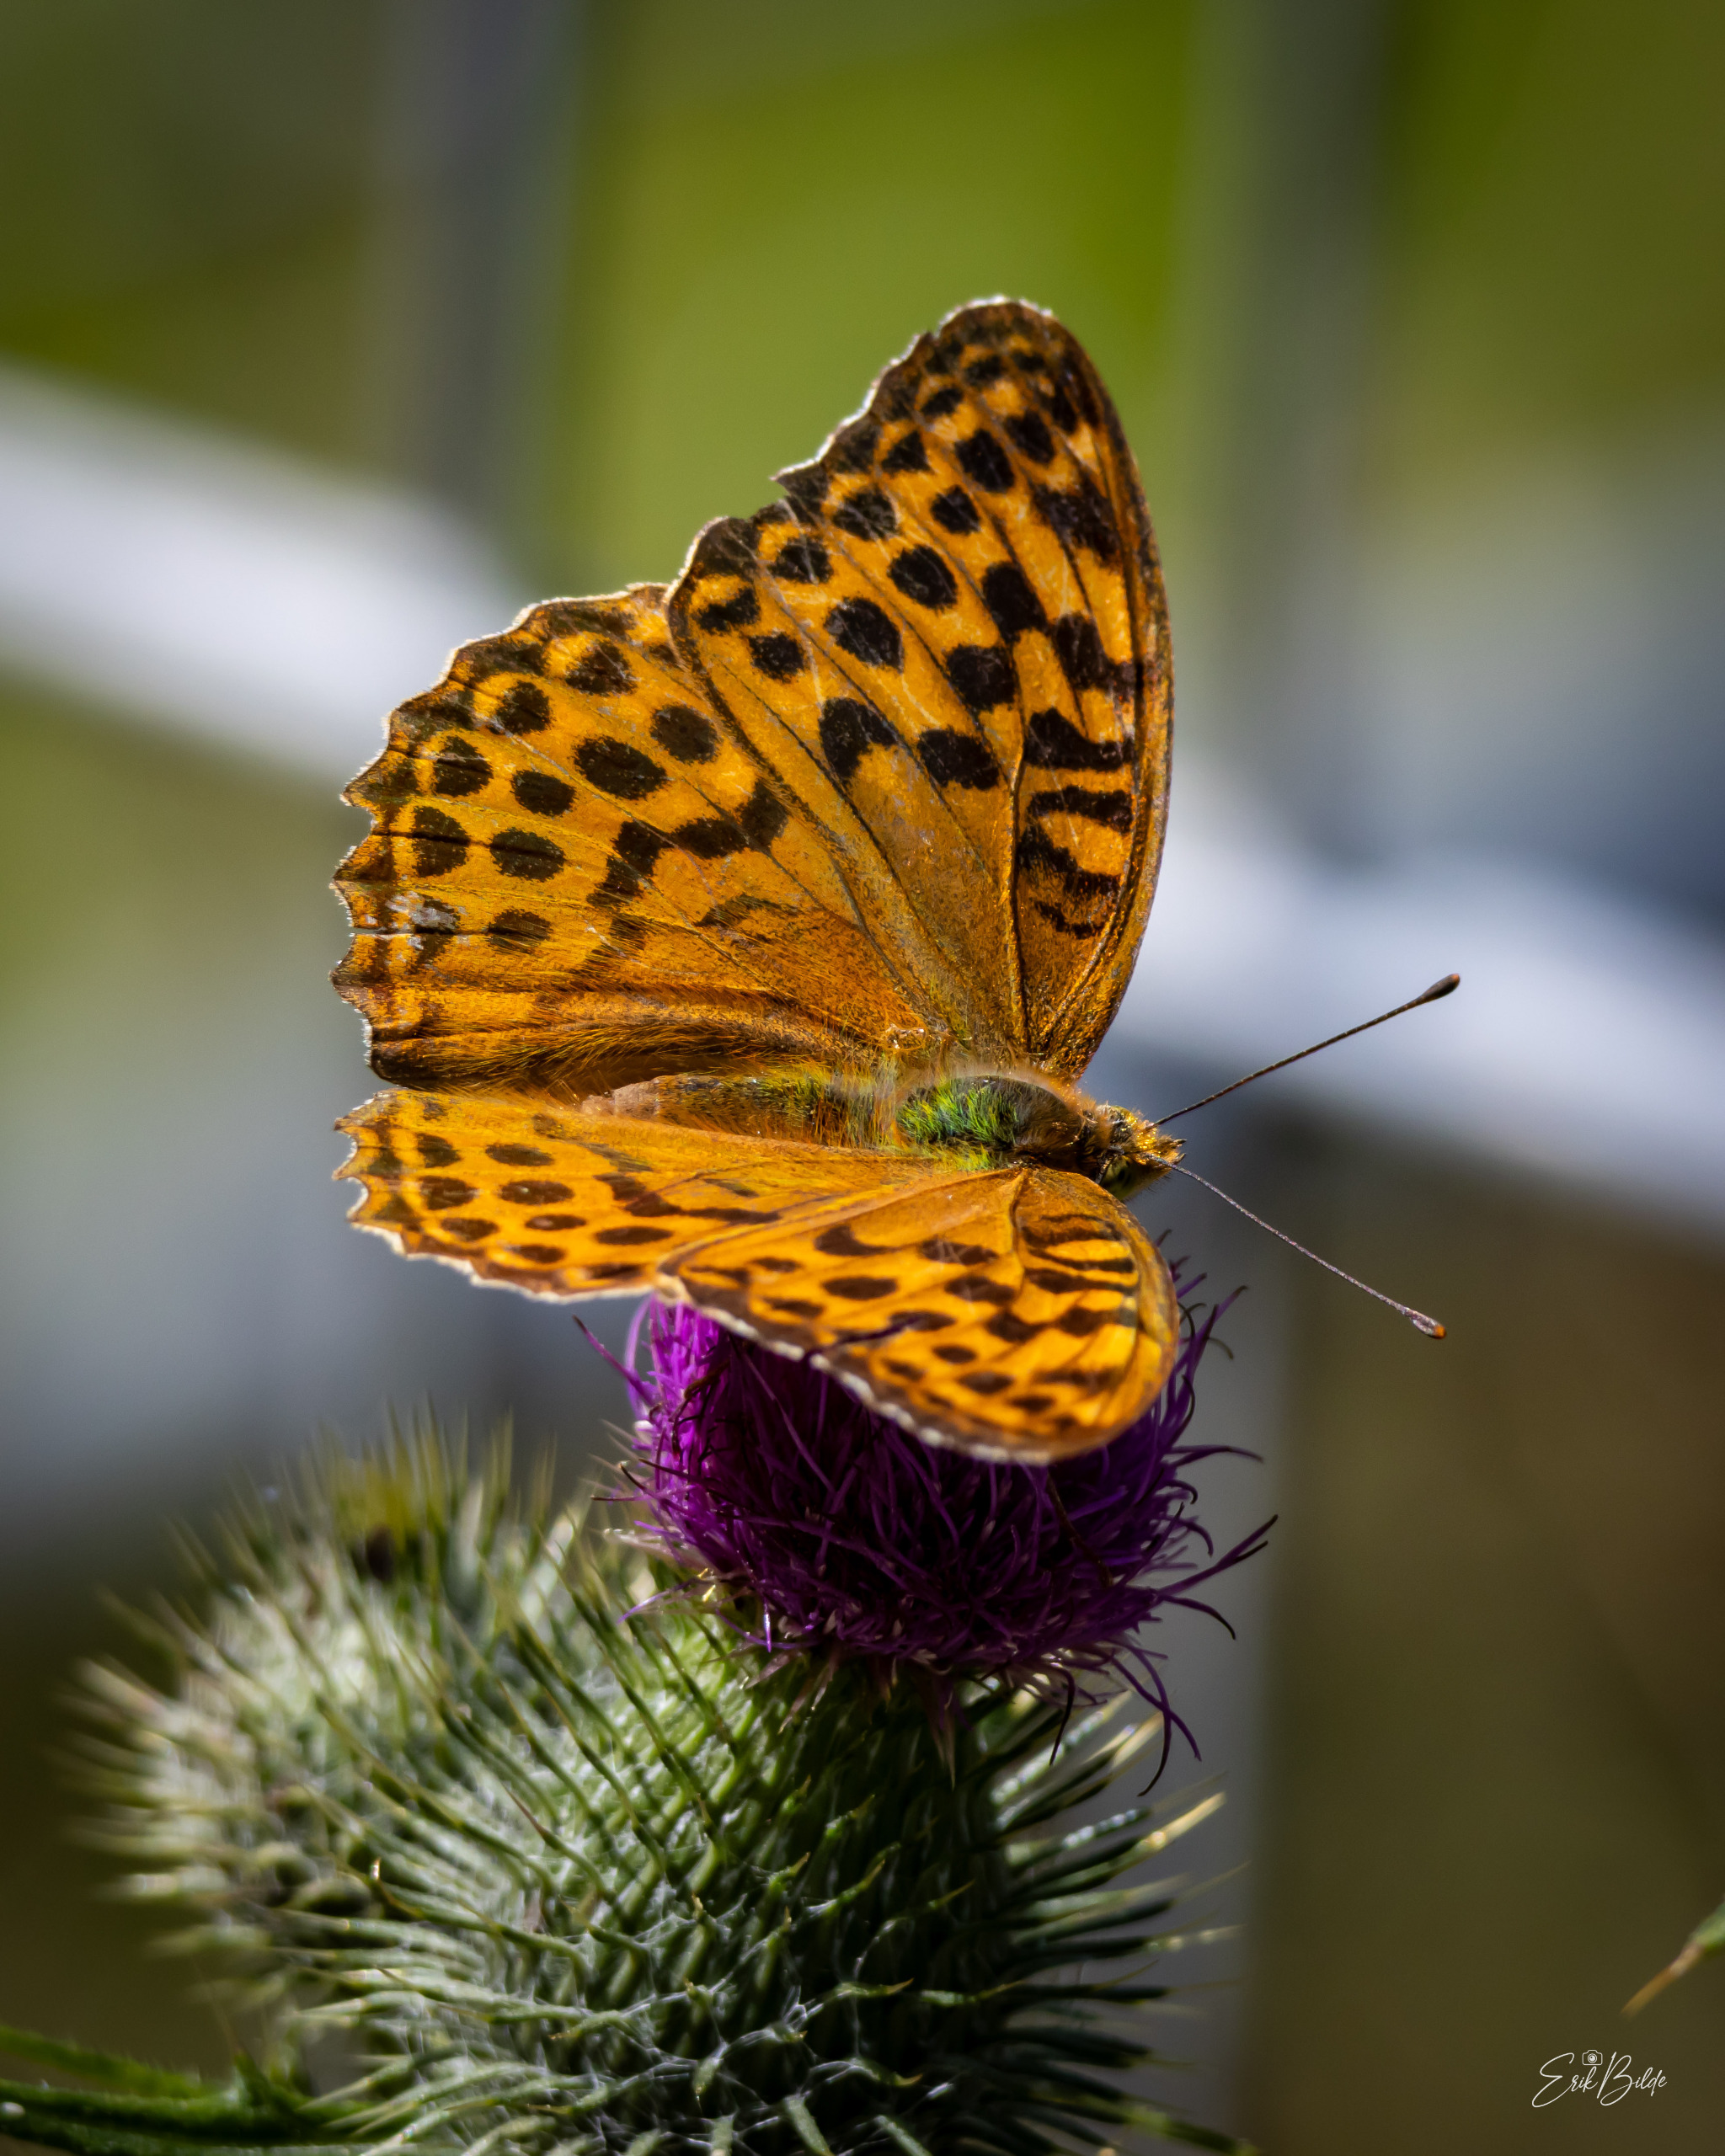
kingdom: Animalia
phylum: Arthropoda
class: Insecta
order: Lepidoptera
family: Nymphalidae
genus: Argynnis
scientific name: Argynnis paphia
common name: Kejserkåbe
